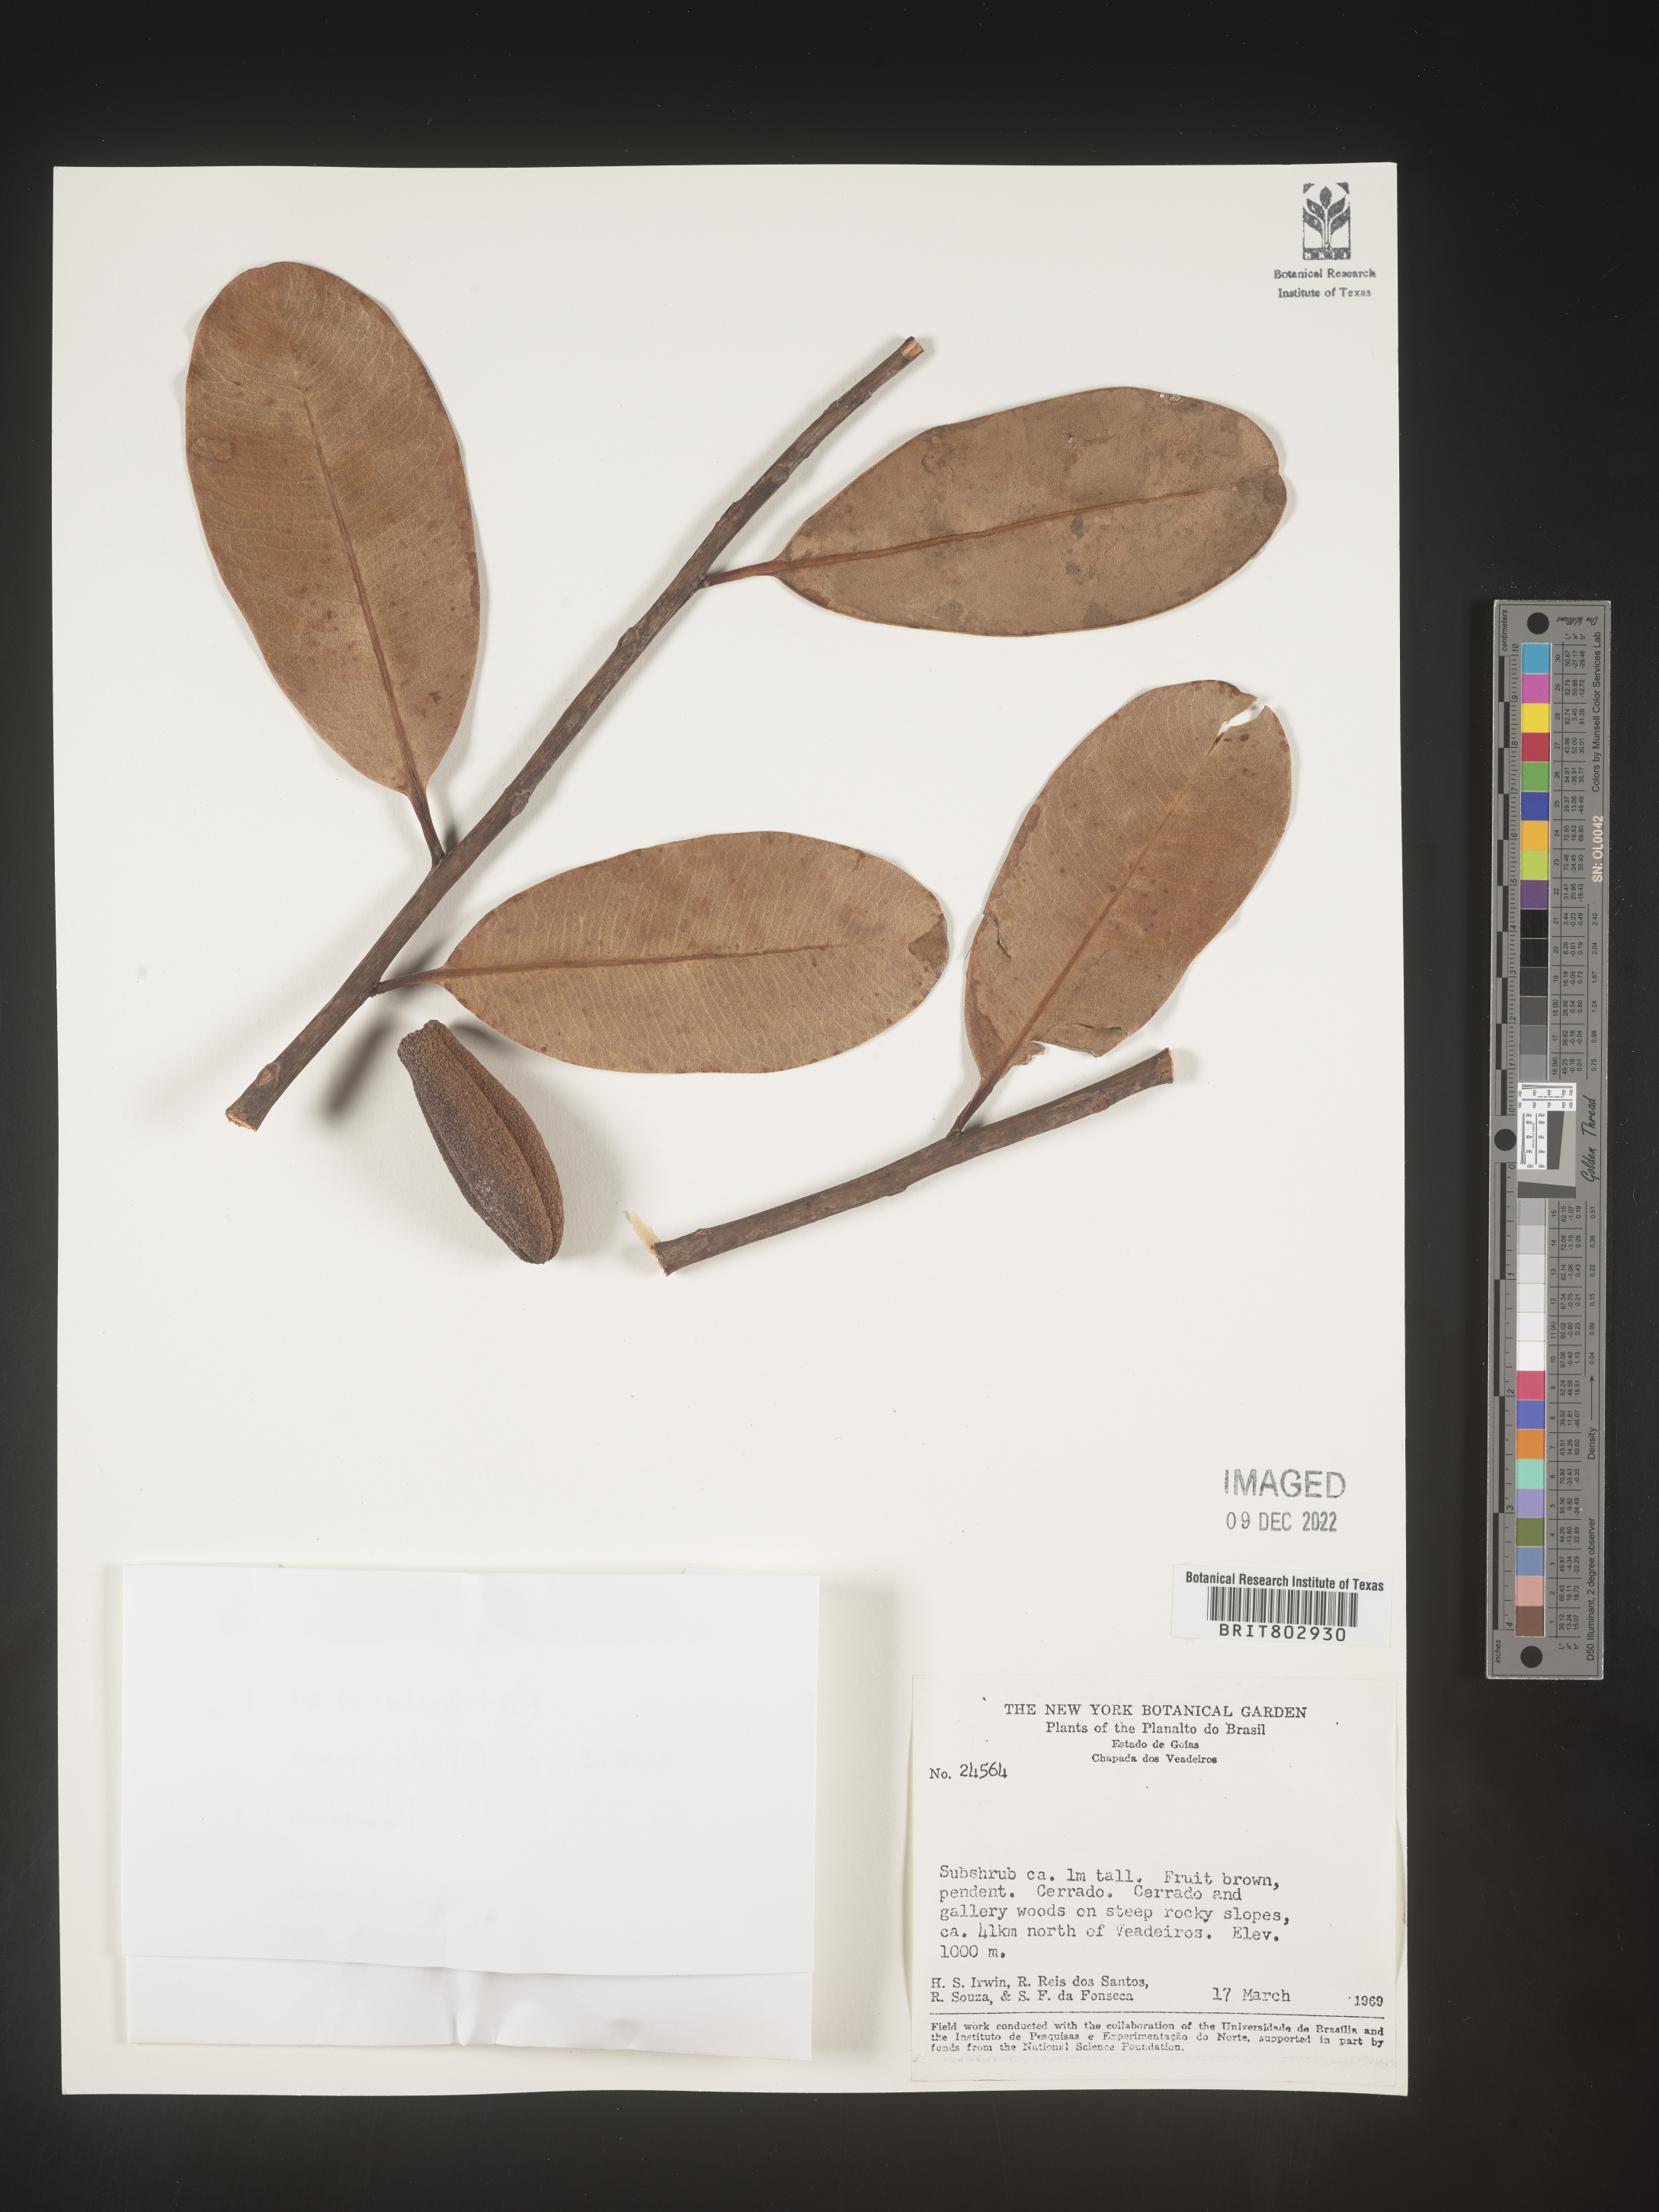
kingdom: Plantae
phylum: Tracheophyta
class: Magnoliopsida
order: Malpighiales
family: Calophyllaceae
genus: Kielmeyera
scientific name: Kielmeyera
